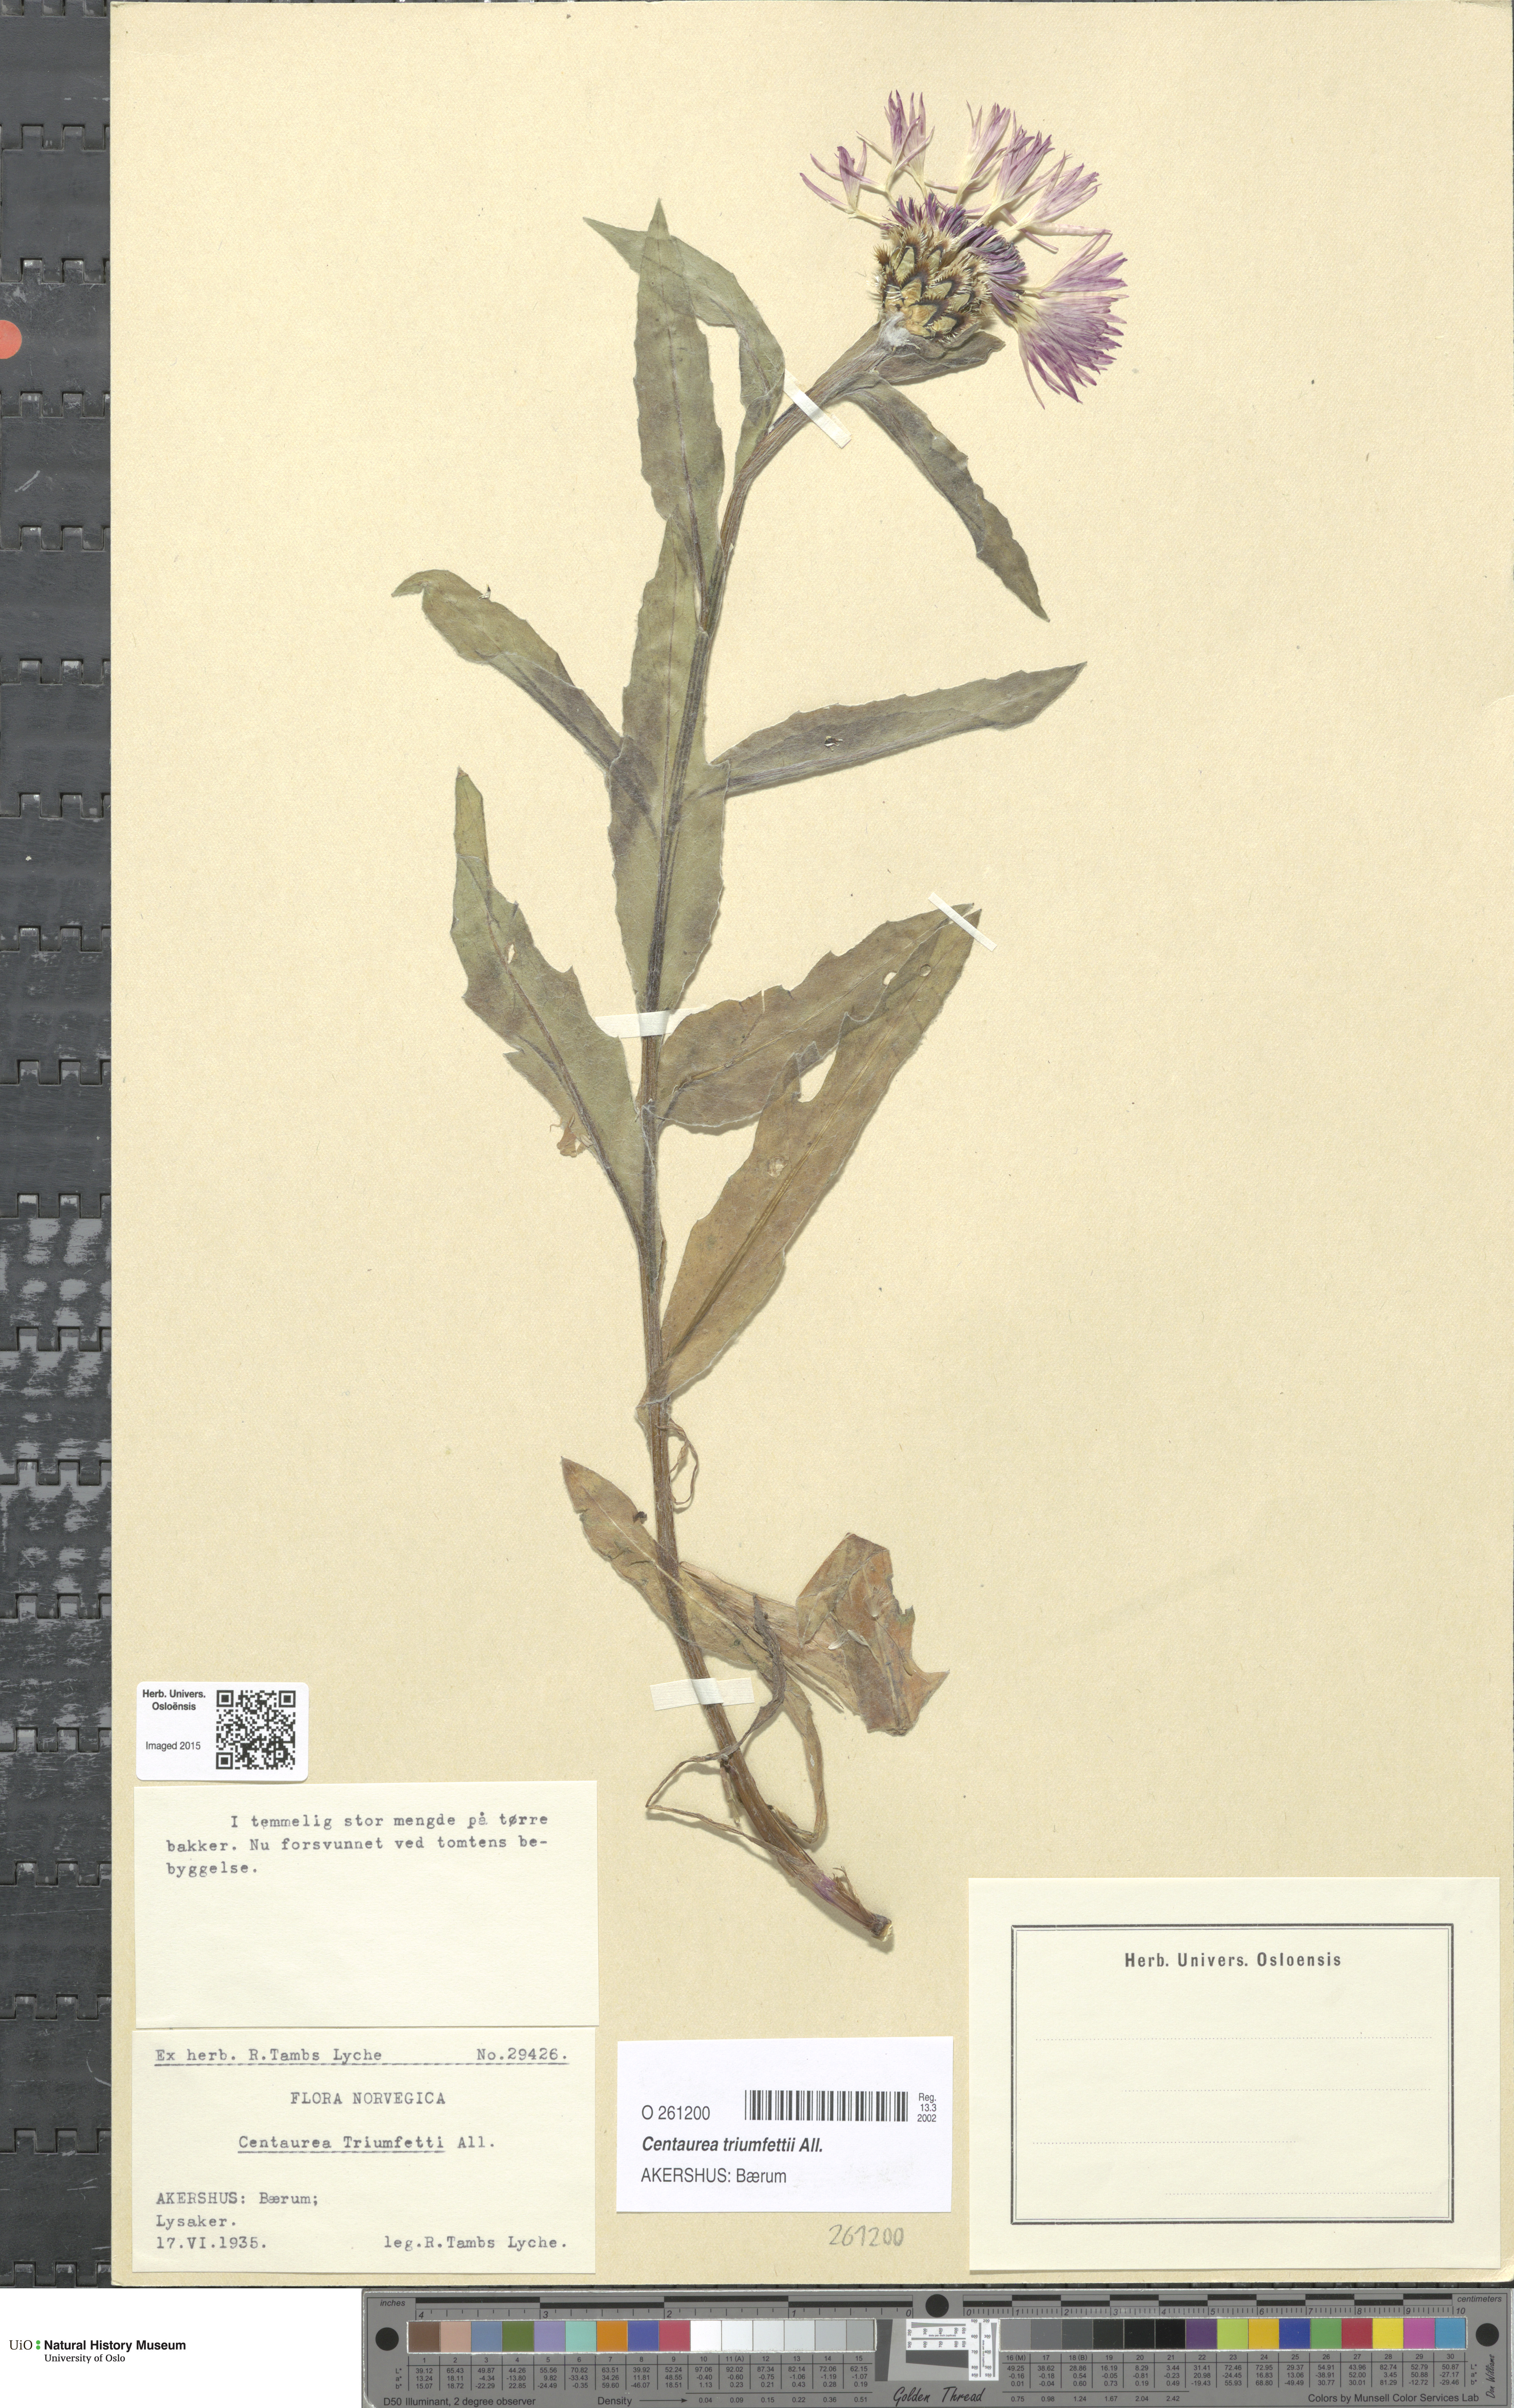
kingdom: Plantae
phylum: Tracheophyta
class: Magnoliopsida
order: Asterales
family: Asteraceae
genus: Centaurea
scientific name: Centaurea triumfettii
